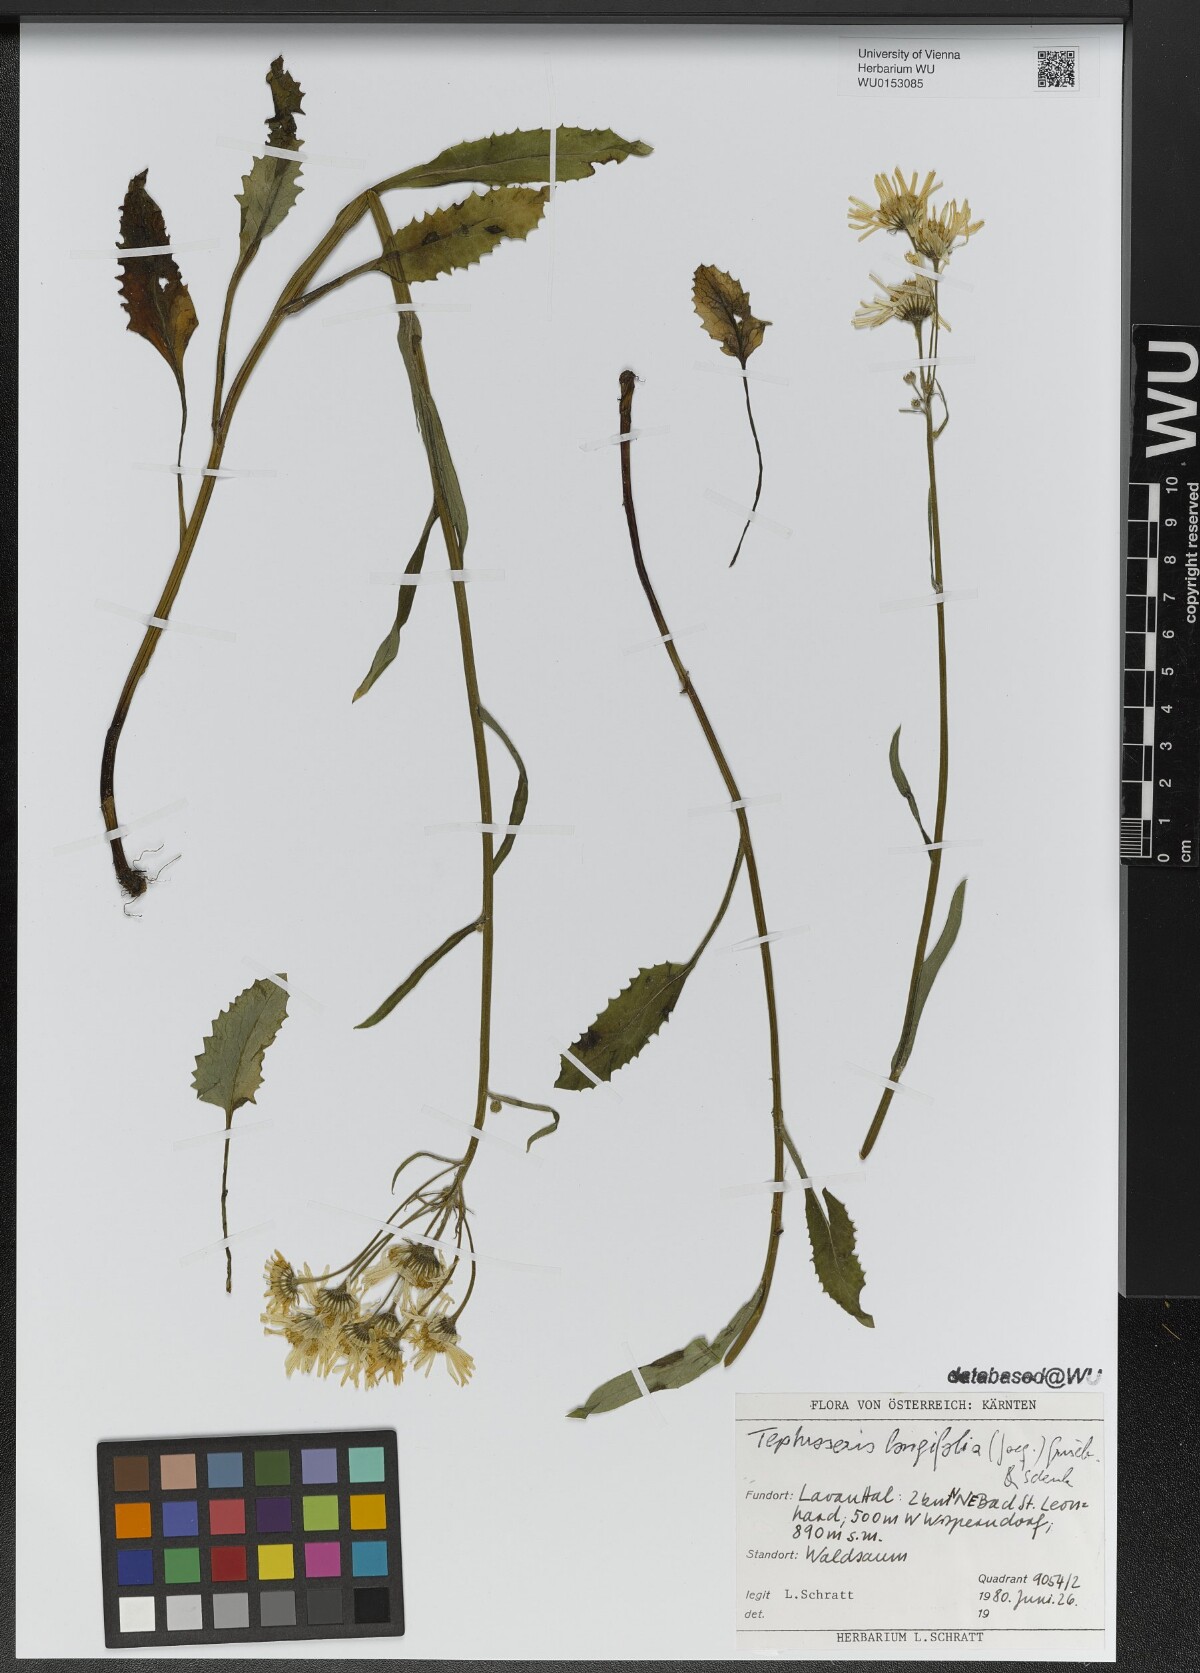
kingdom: Plantae
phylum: Tracheophyta
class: Magnoliopsida
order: Asterales
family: Asteraceae
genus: Tephroseris
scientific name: Tephroseris longifolia
